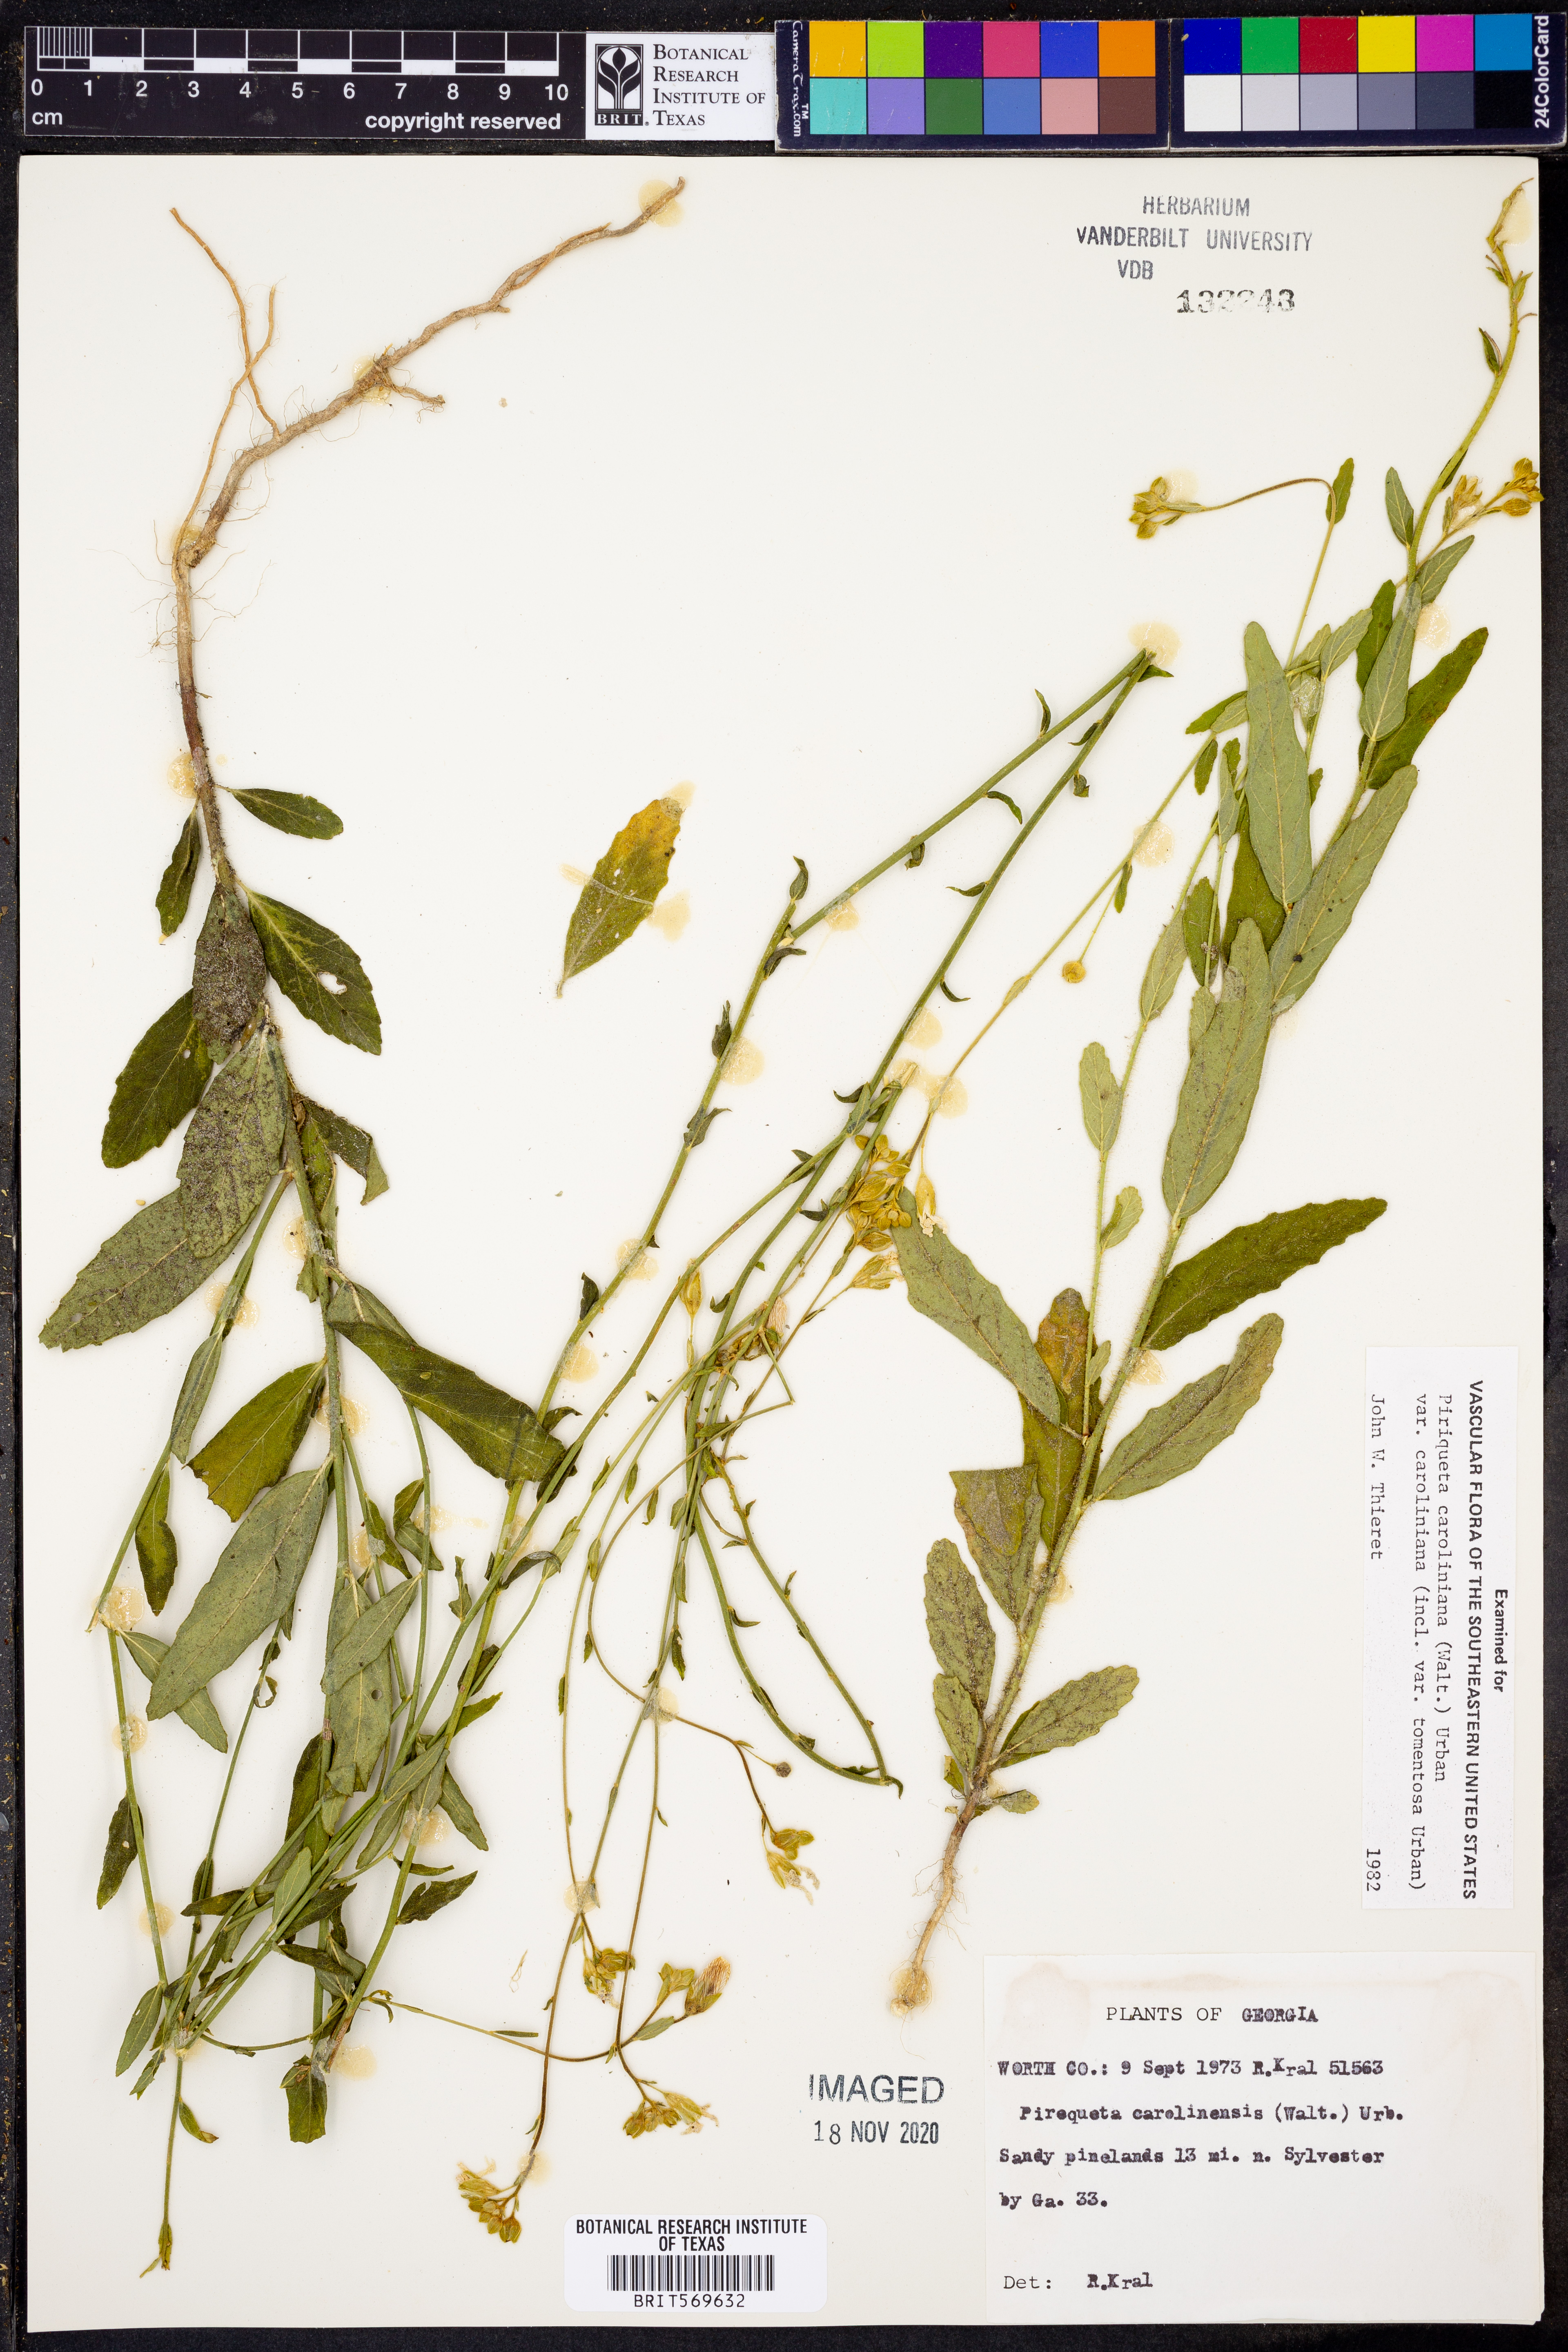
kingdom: Plantae
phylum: Tracheophyta
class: Magnoliopsida
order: Malpighiales
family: Turneraceae
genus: Piriqueta
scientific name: Piriqueta cistoides
